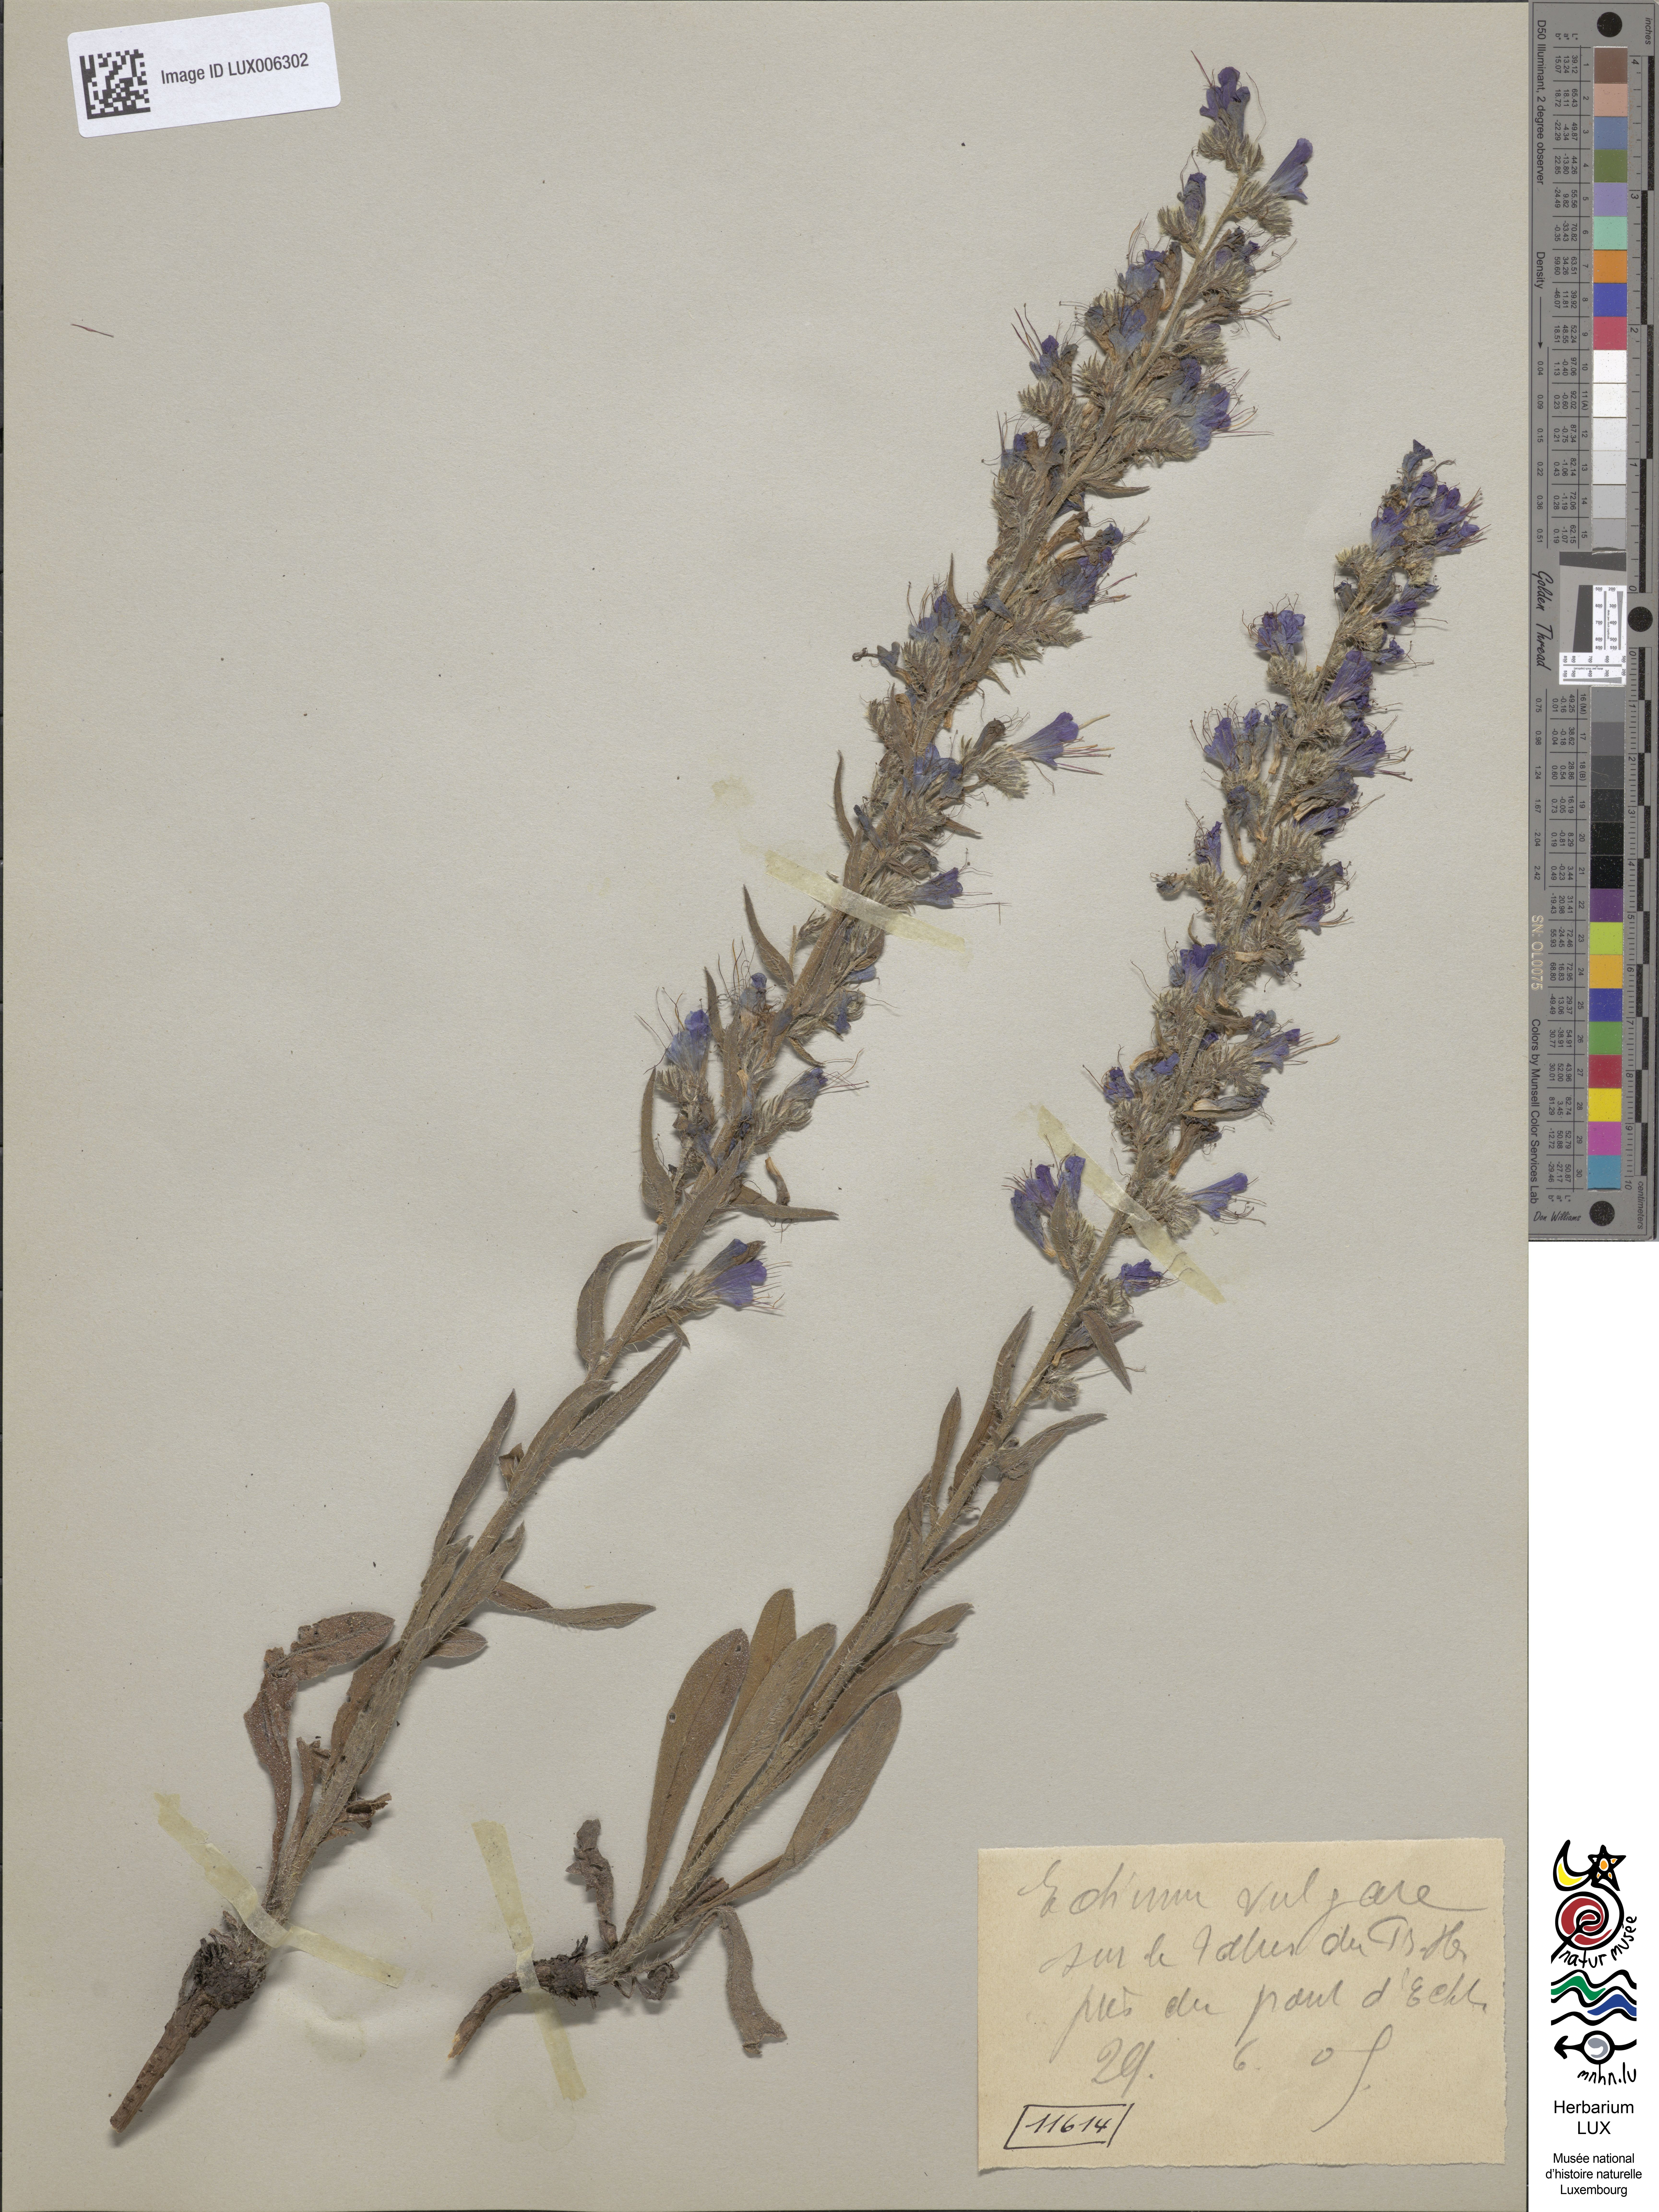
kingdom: Plantae
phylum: Tracheophyta
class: Magnoliopsida
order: Boraginales
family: Boraginaceae
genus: Echium
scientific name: Echium vulgare
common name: Common viper's bugloss
